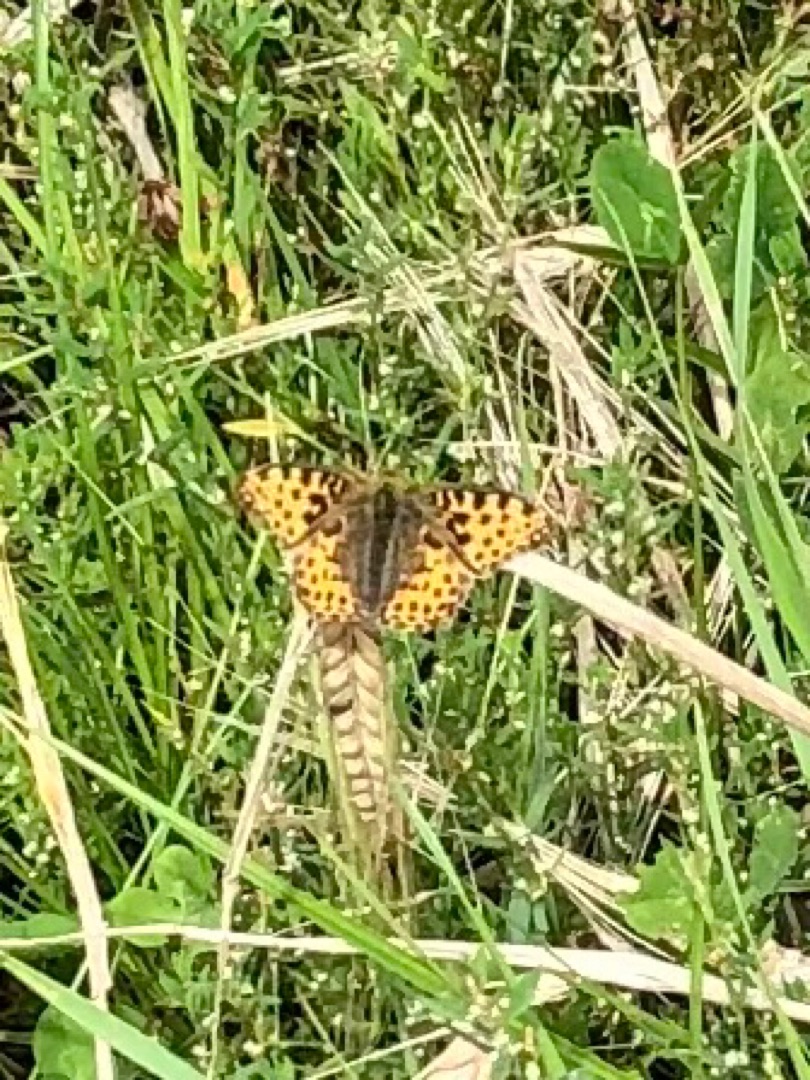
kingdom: Animalia
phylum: Arthropoda
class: Insecta
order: Lepidoptera
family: Nymphalidae
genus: Issoria
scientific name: Issoria lathonia
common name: Storplettet perlemorsommerfugl
